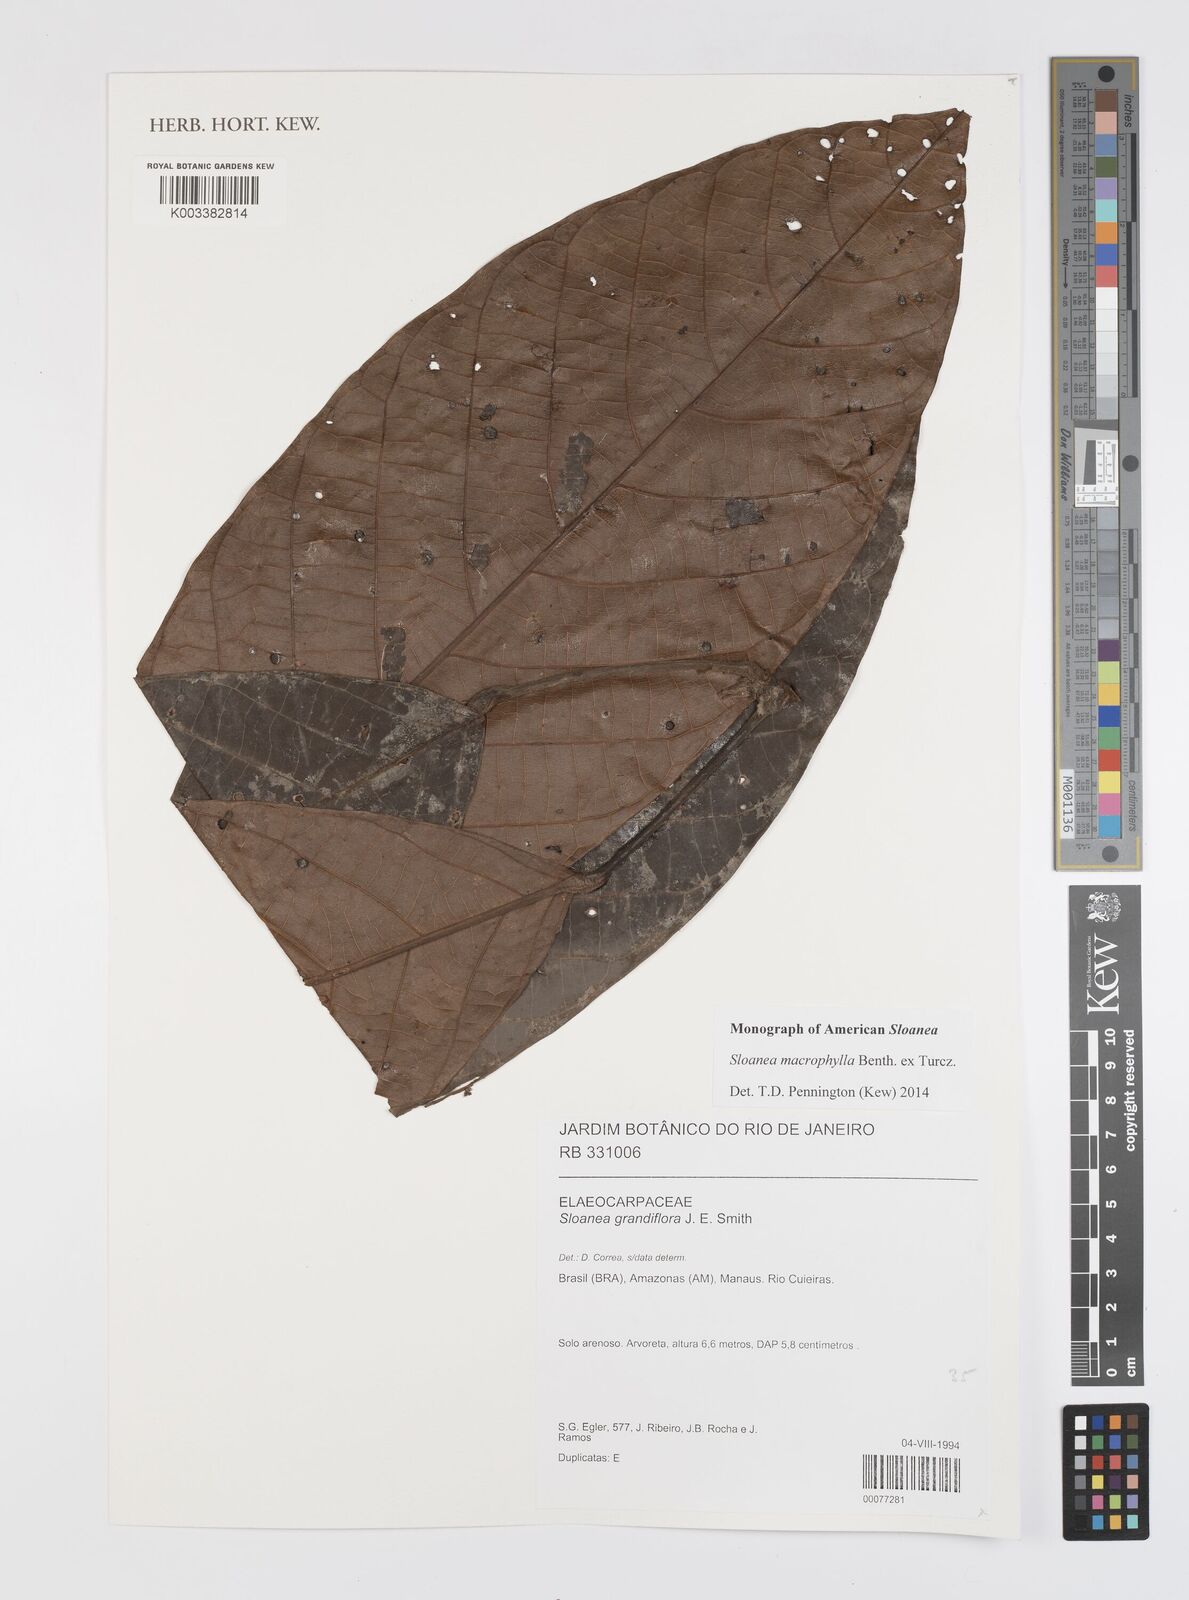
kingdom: Plantae
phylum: Tracheophyta
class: Magnoliopsida
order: Oxalidales
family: Elaeocarpaceae
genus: Sloanea
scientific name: Sloanea macrophylla
